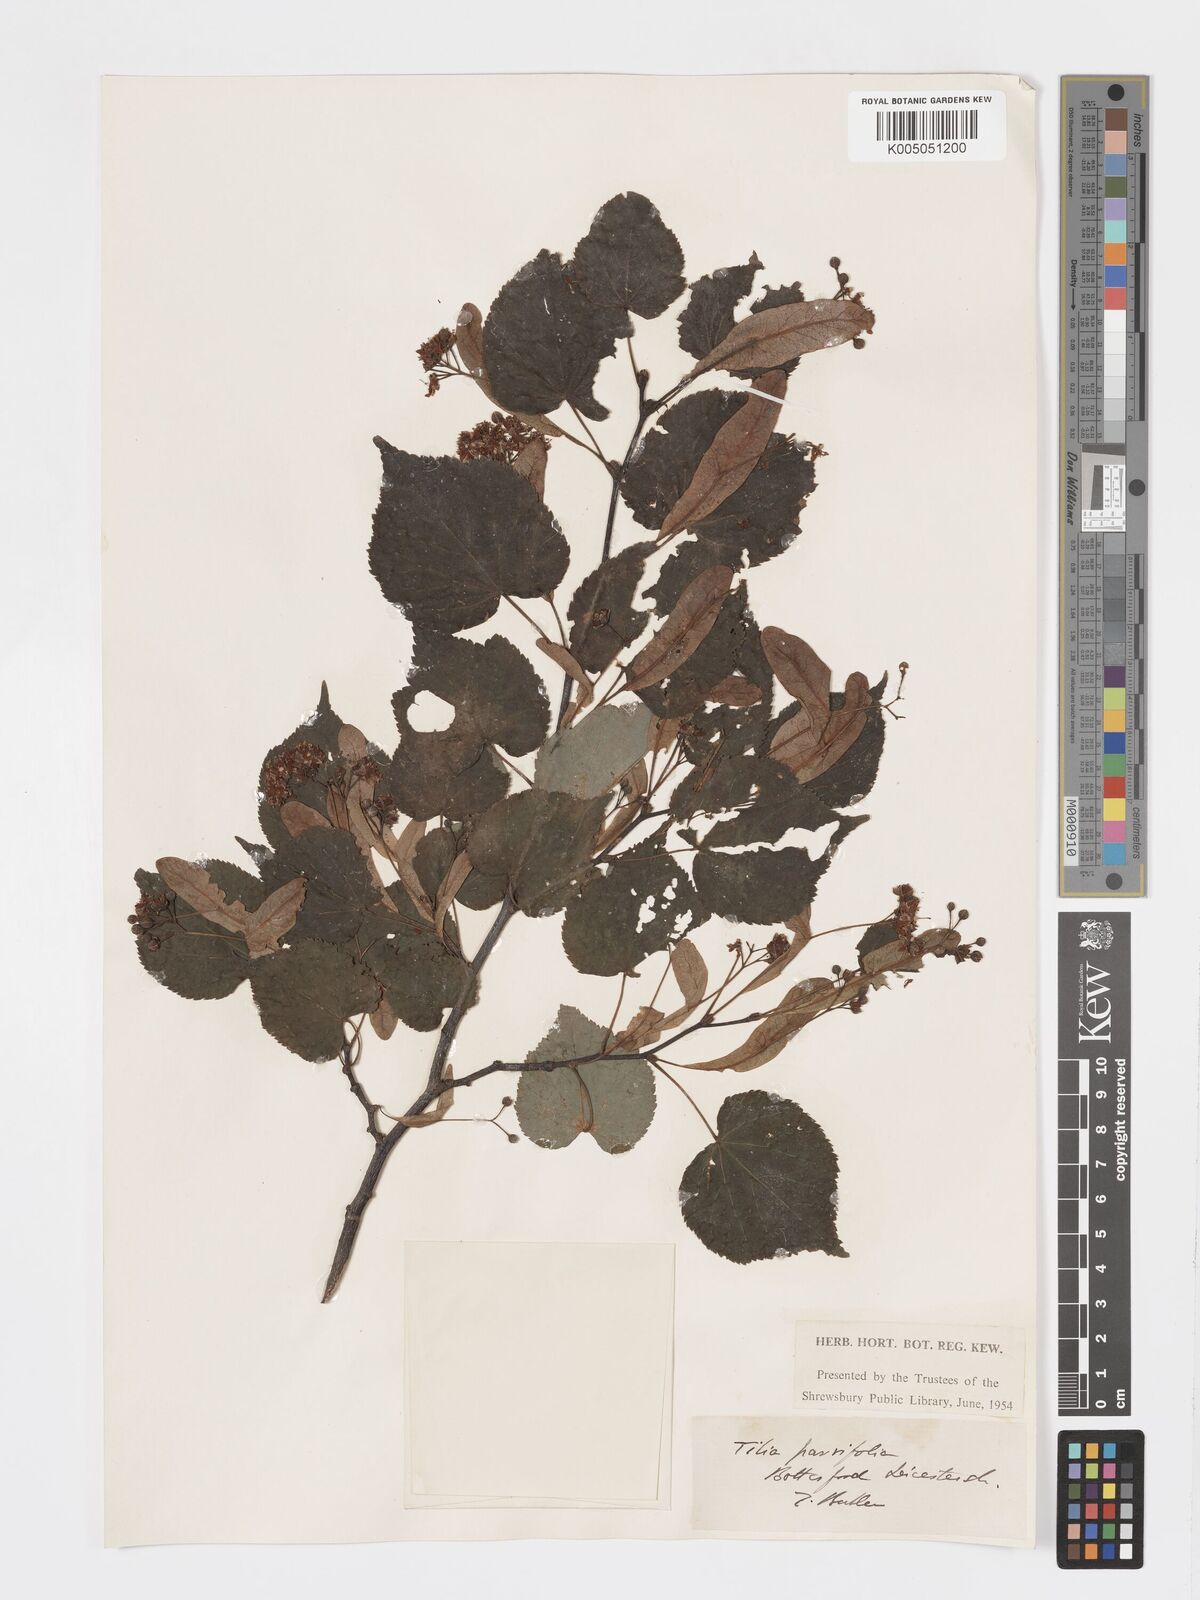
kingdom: Plantae
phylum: Tracheophyta
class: Magnoliopsida
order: Malvales
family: Malvaceae
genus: Tilia
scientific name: Tilia
